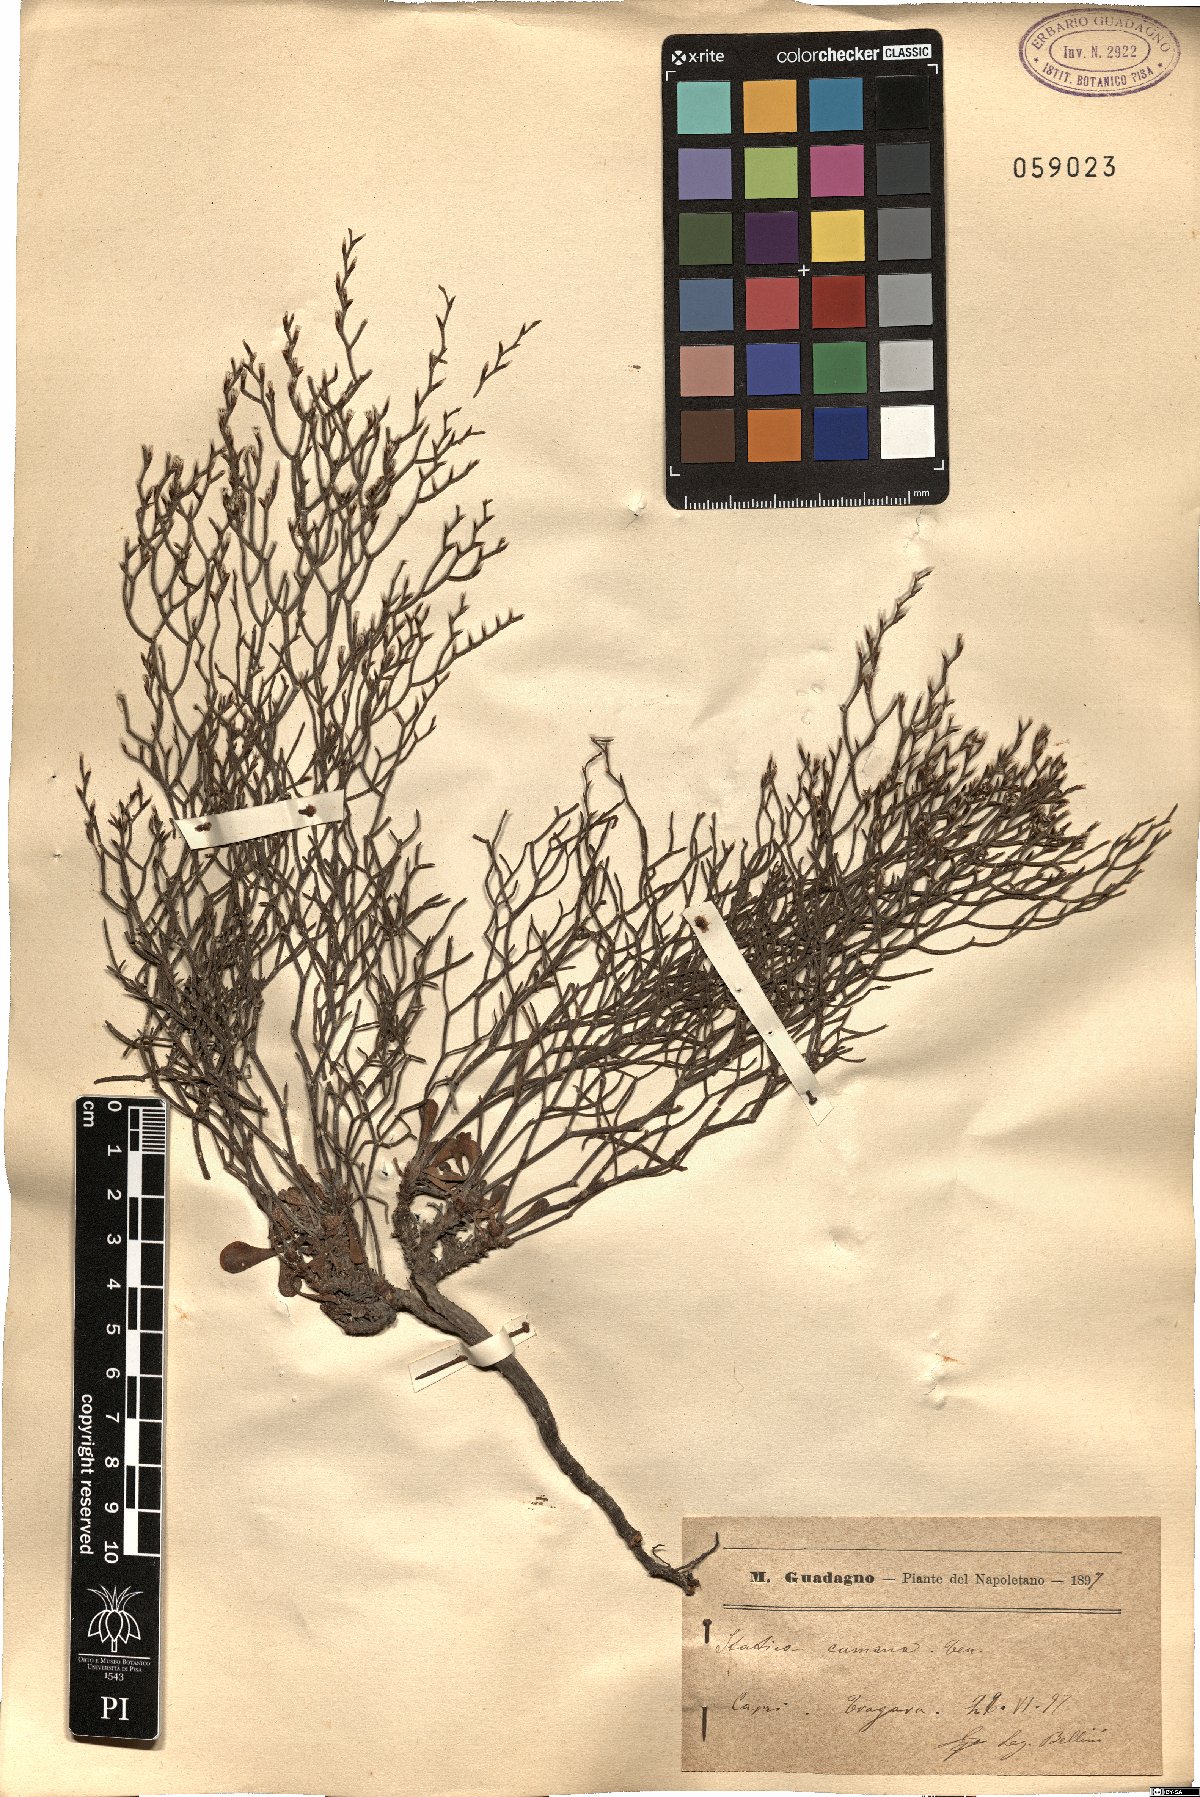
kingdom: Plantae
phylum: Tracheophyta
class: Magnoliopsida
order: Caryophyllales
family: Plumbaginaceae
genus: Limonium
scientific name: Limonium cumanum
